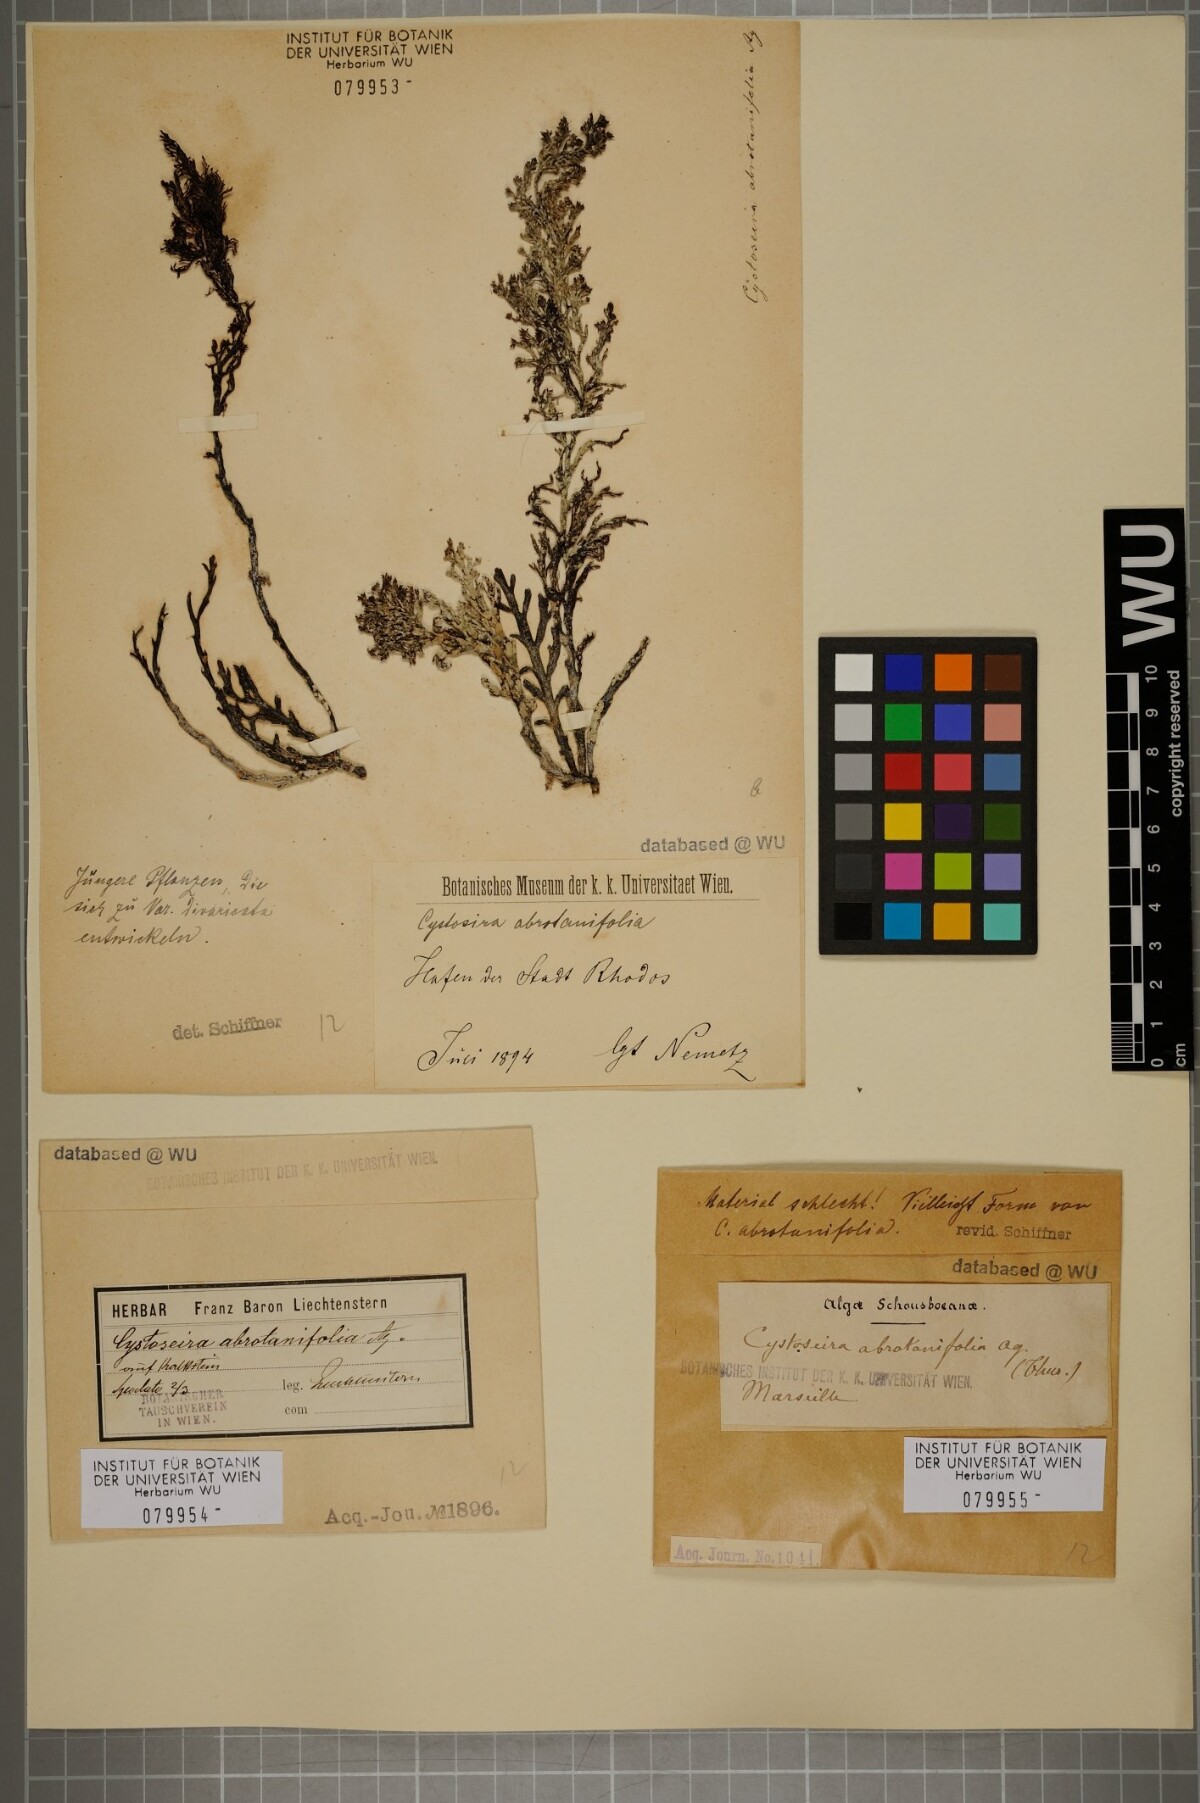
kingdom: Chromista
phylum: Ochrophyta
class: Phaeophyceae
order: Fucales
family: Sargassaceae
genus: Cystoseira
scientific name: Cystoseira foeniculacea
